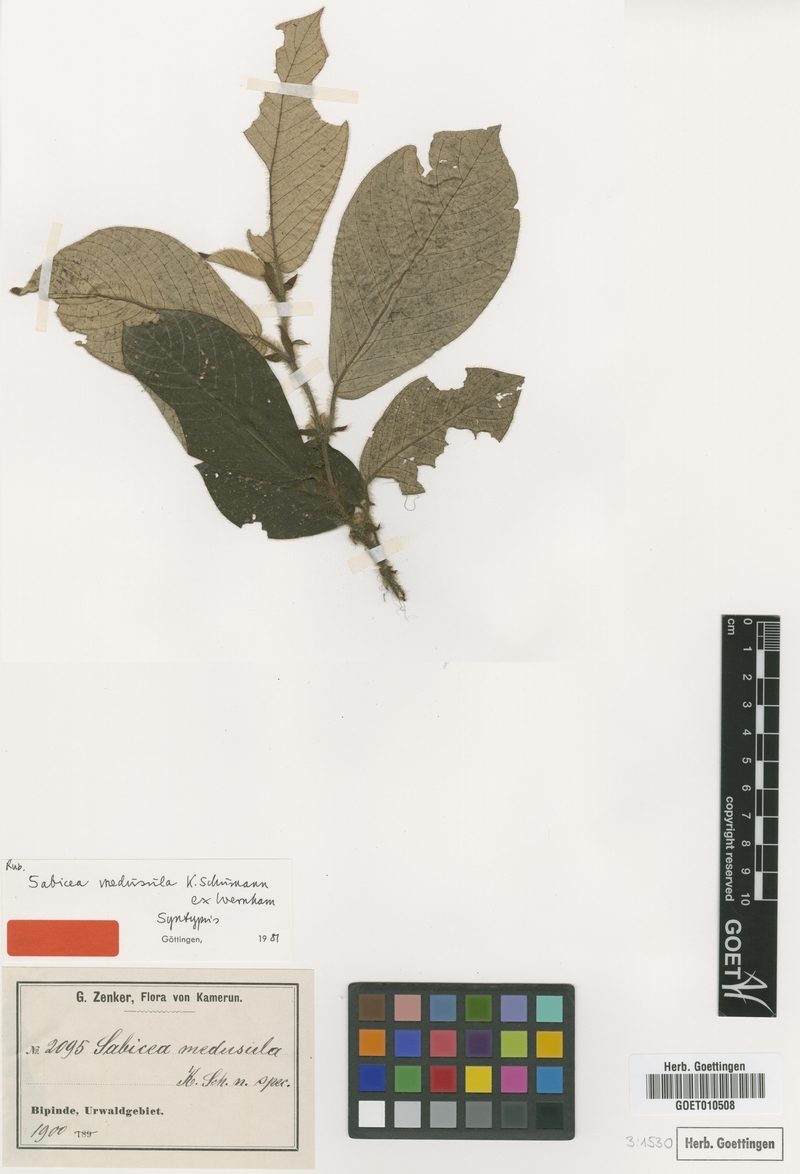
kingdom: Plantae
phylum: Tracheophyta
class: Magnoliopsida
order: Gentianales
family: Rubiaceae
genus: Sabicea
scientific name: Sabicea medusula
